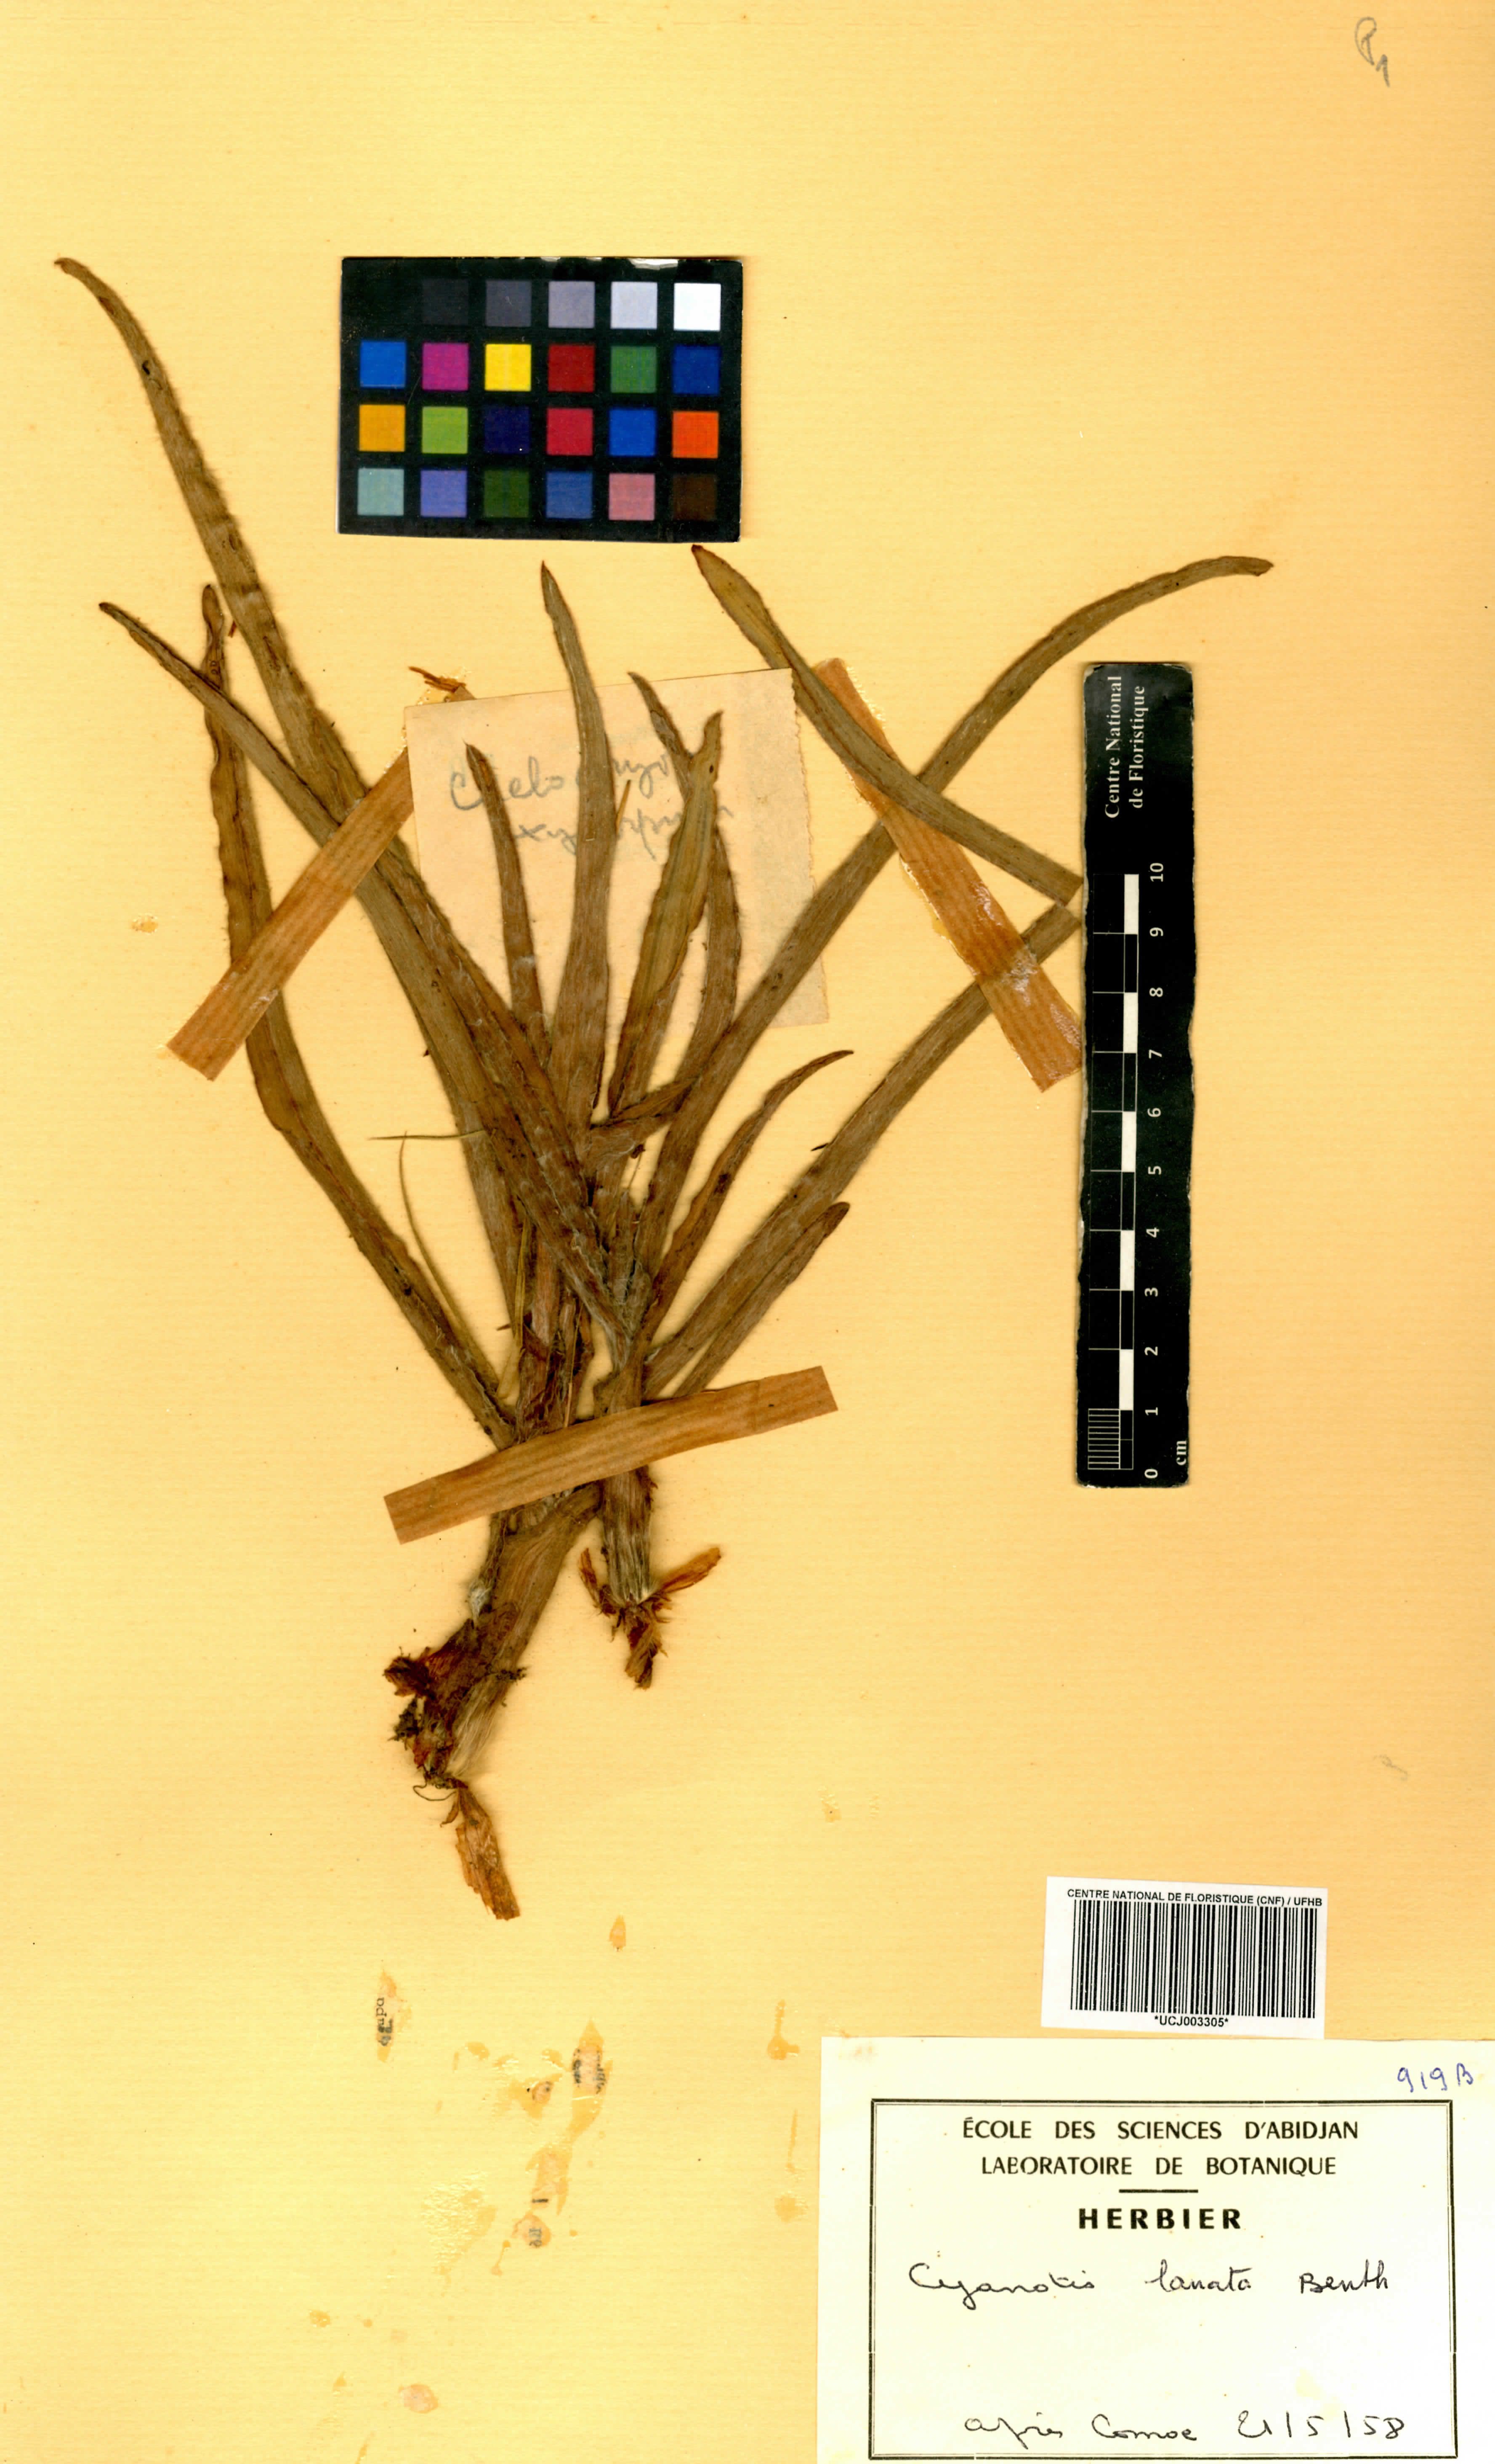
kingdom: Plantae
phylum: Tracheophyta
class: Liliopsida
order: Commelinales
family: Commelinaceae
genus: Cyanotis
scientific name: Cyanotis lanata
